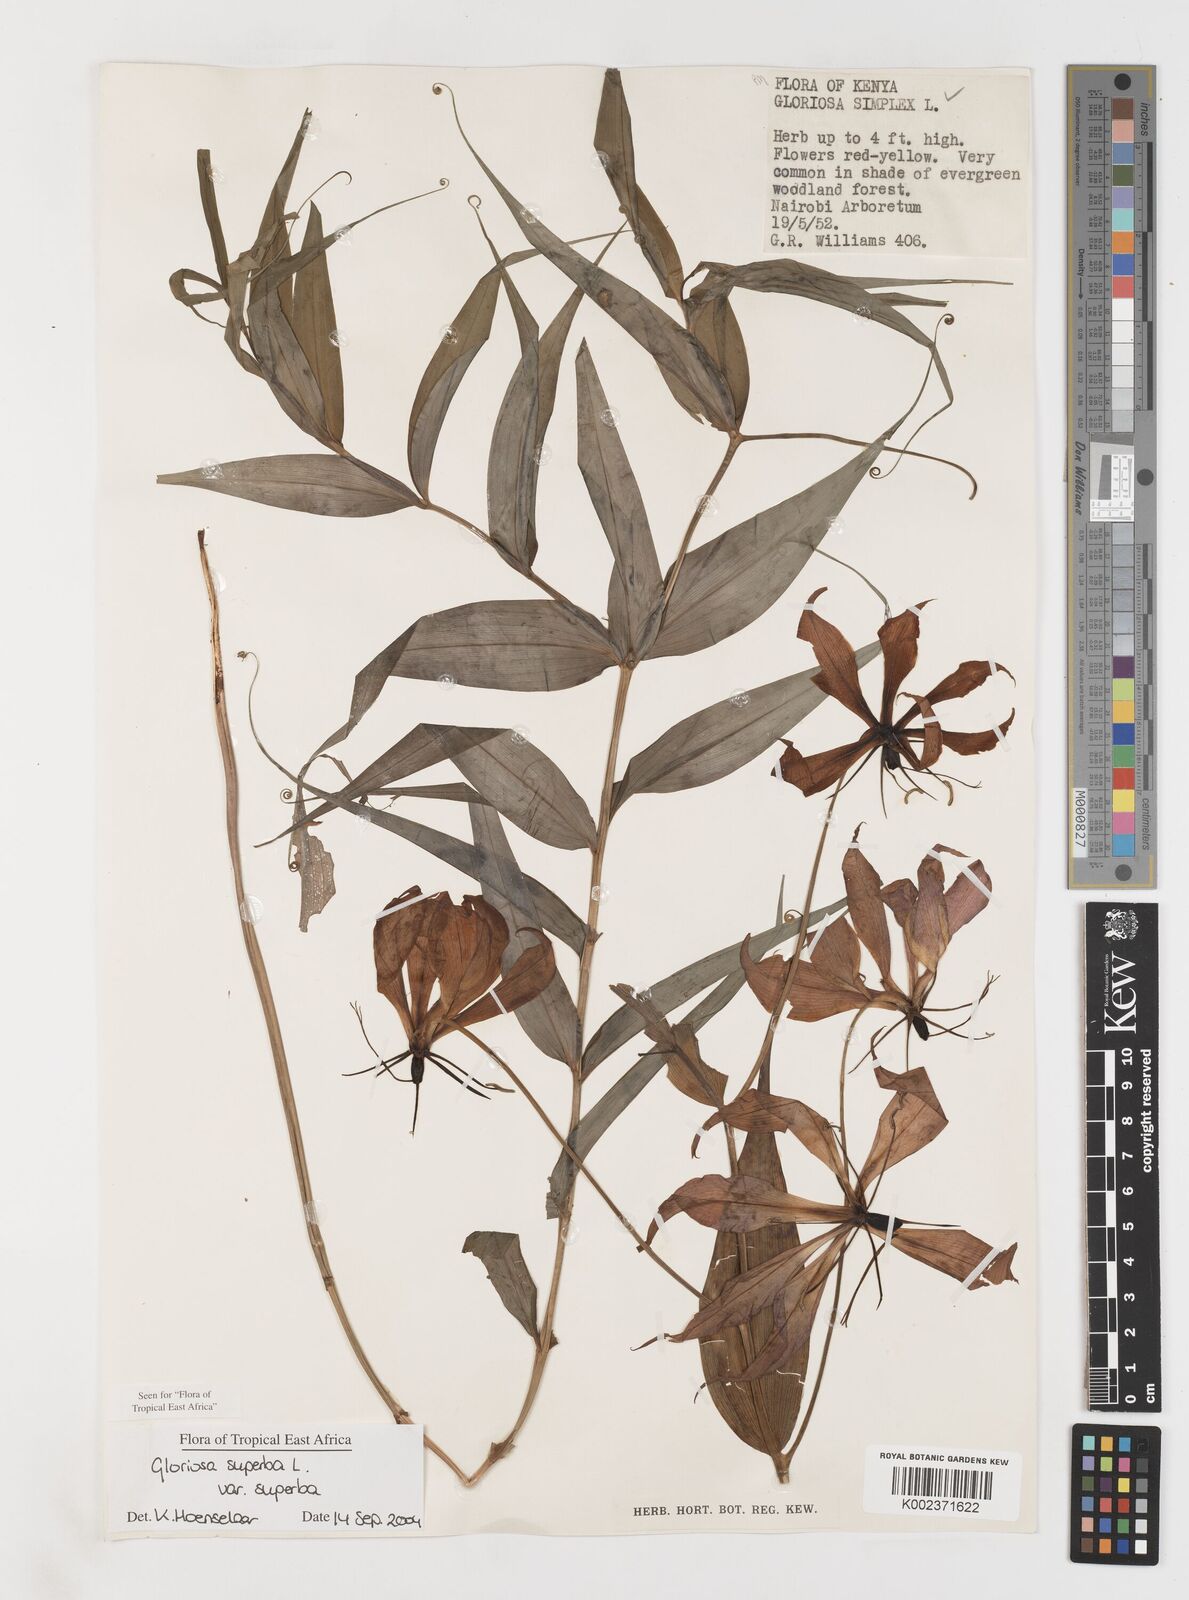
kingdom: Plantae
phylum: Tracheophyta
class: Liliopsida
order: Liliales
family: Colchicaceae
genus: Gloriosa
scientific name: Gloriosa simplex
